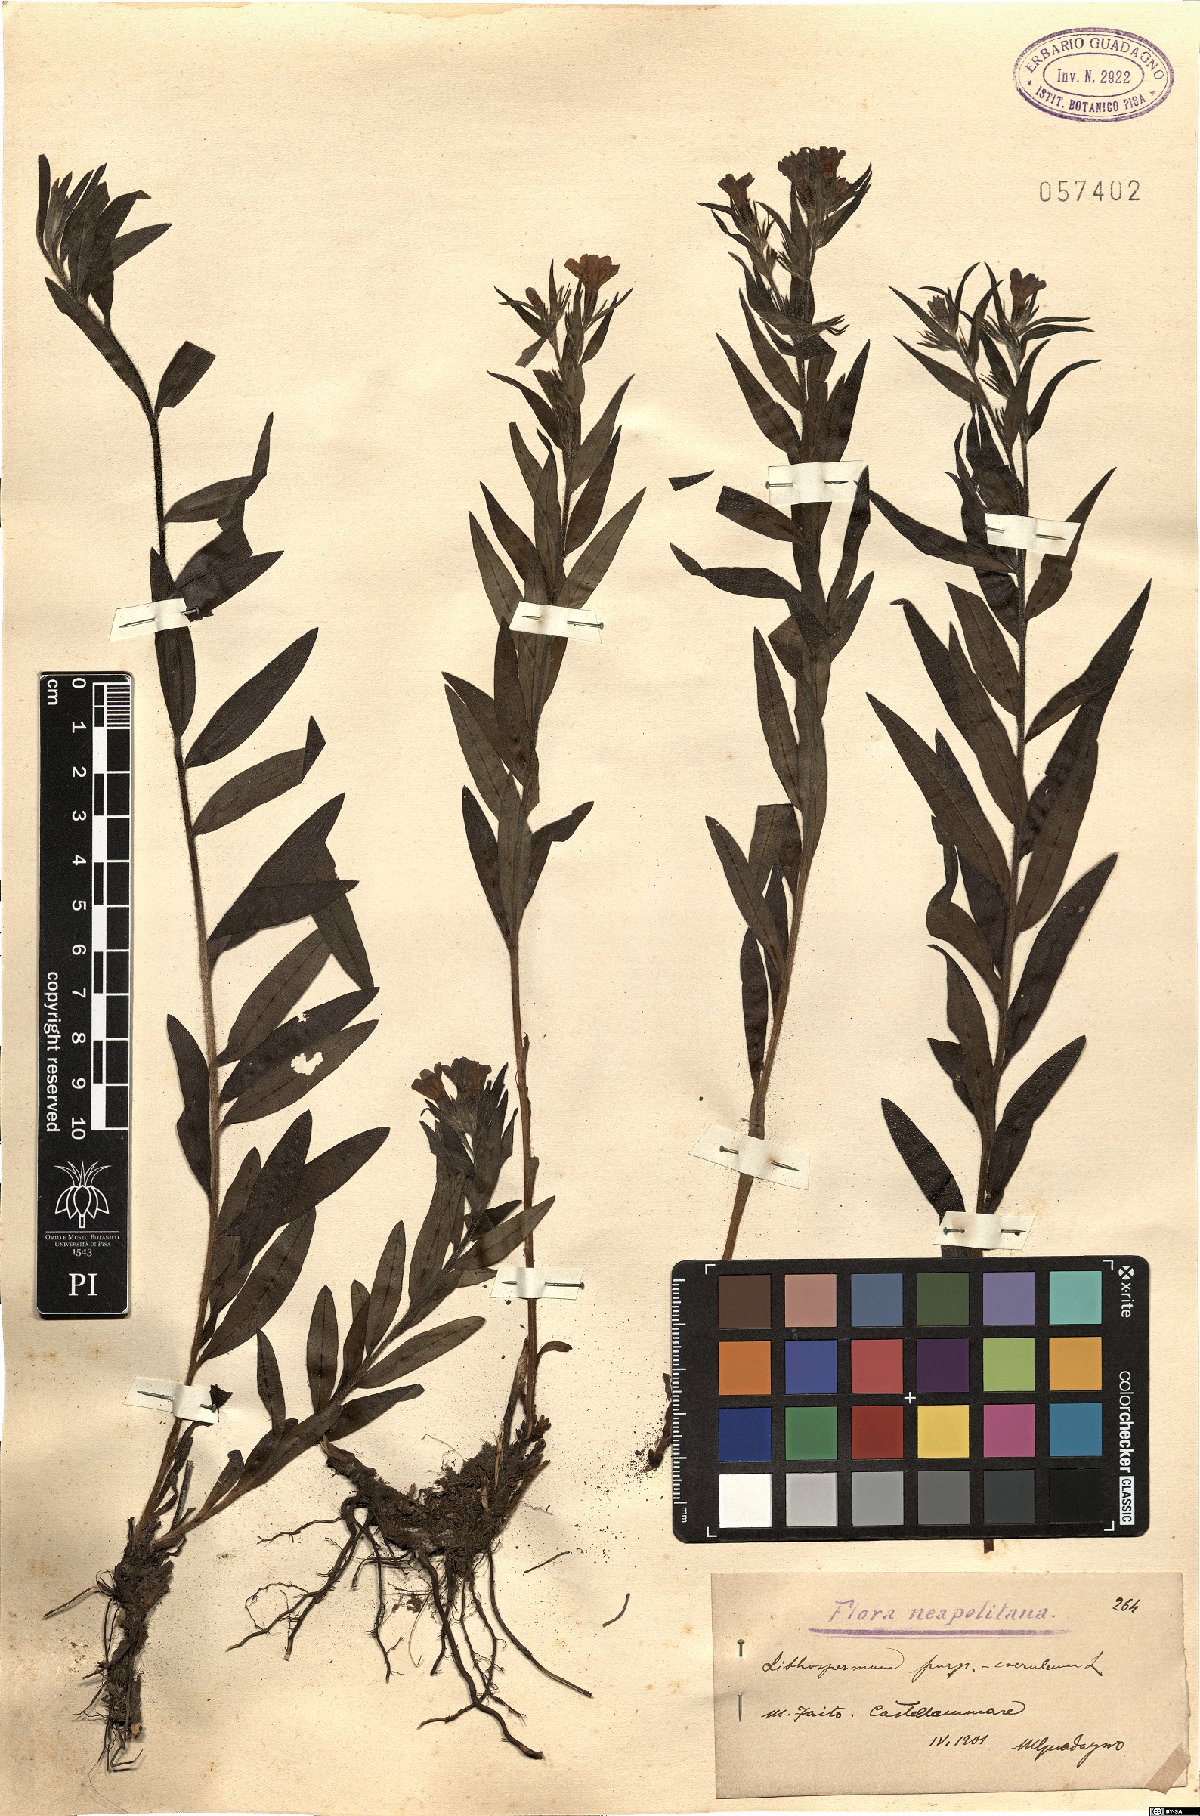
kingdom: Plantae
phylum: Tracheophyta
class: Magnoliopsida
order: Boraginales
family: Boraginaceae
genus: Aegonychon
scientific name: Aegonychon purpurocaeruleum
